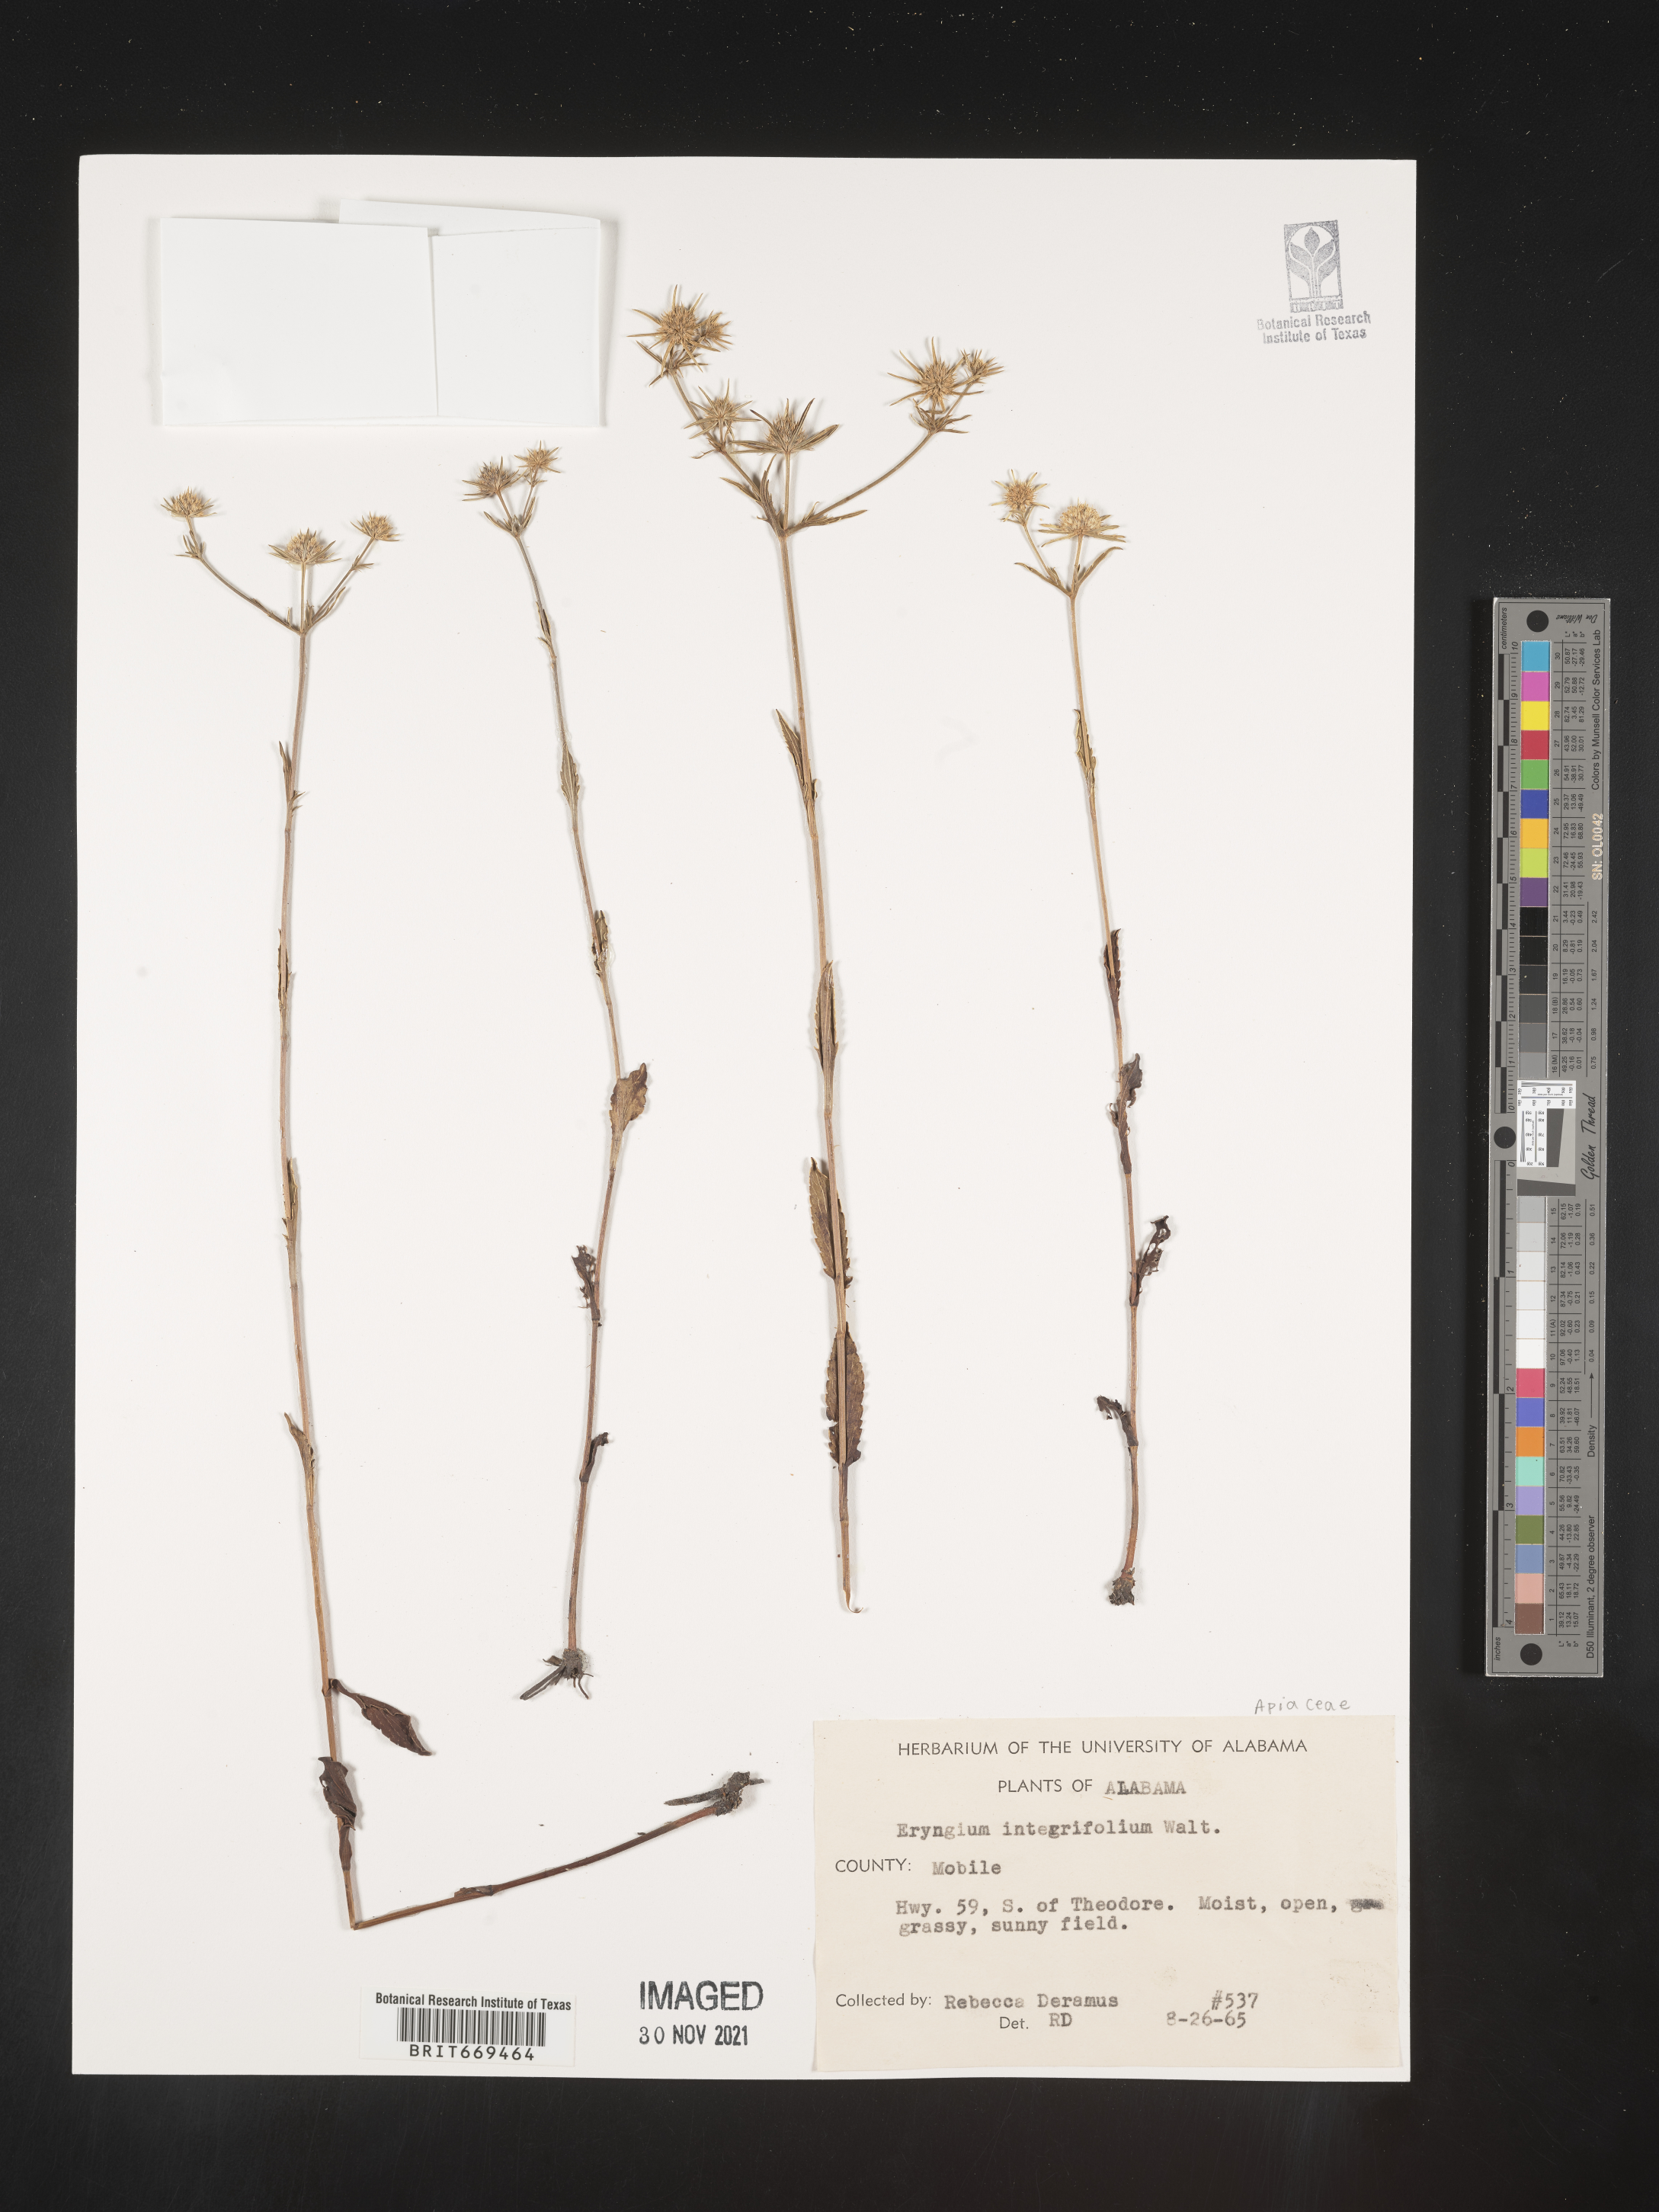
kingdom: Plantae
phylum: Tracheophyta
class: Magnoliopsida
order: Apiales
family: Apiaceae
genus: Eryngium
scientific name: Eryngium integrifolium
